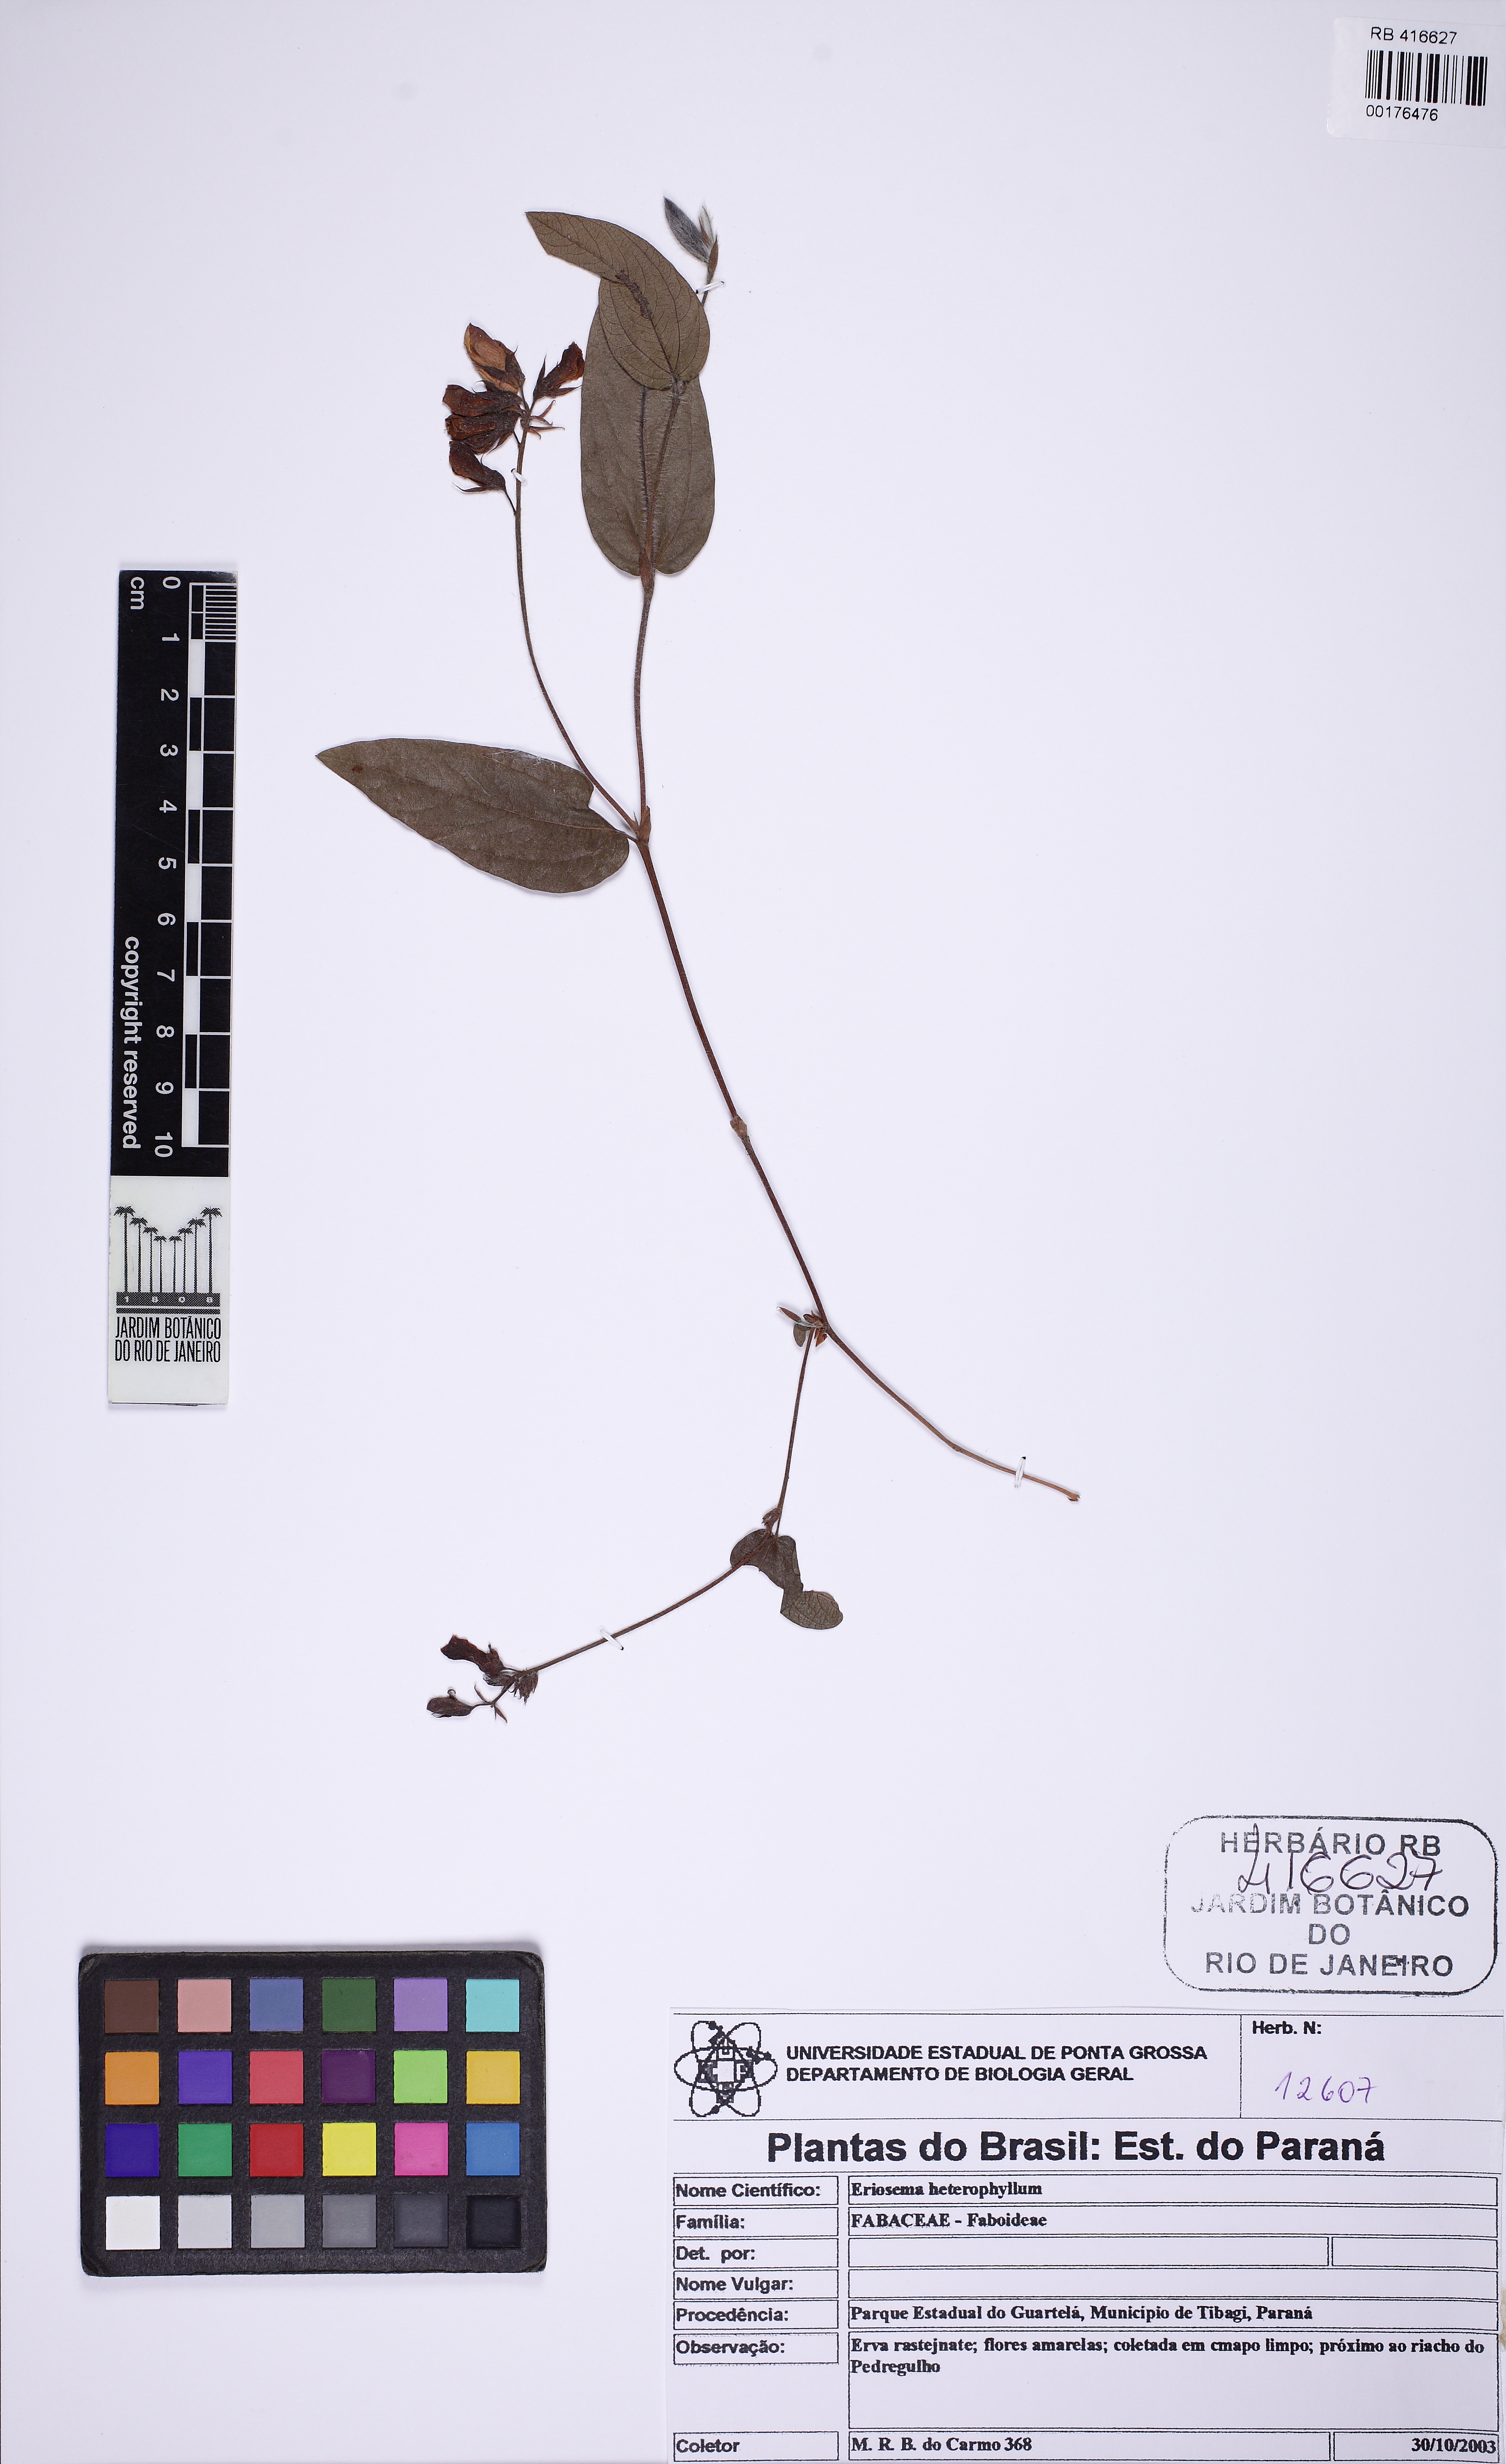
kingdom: Plantae
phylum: Tracheophyta
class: Magnoliopsida
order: Fabales
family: Fabaceae
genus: Eriosema
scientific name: Eriosema heterophyllum
